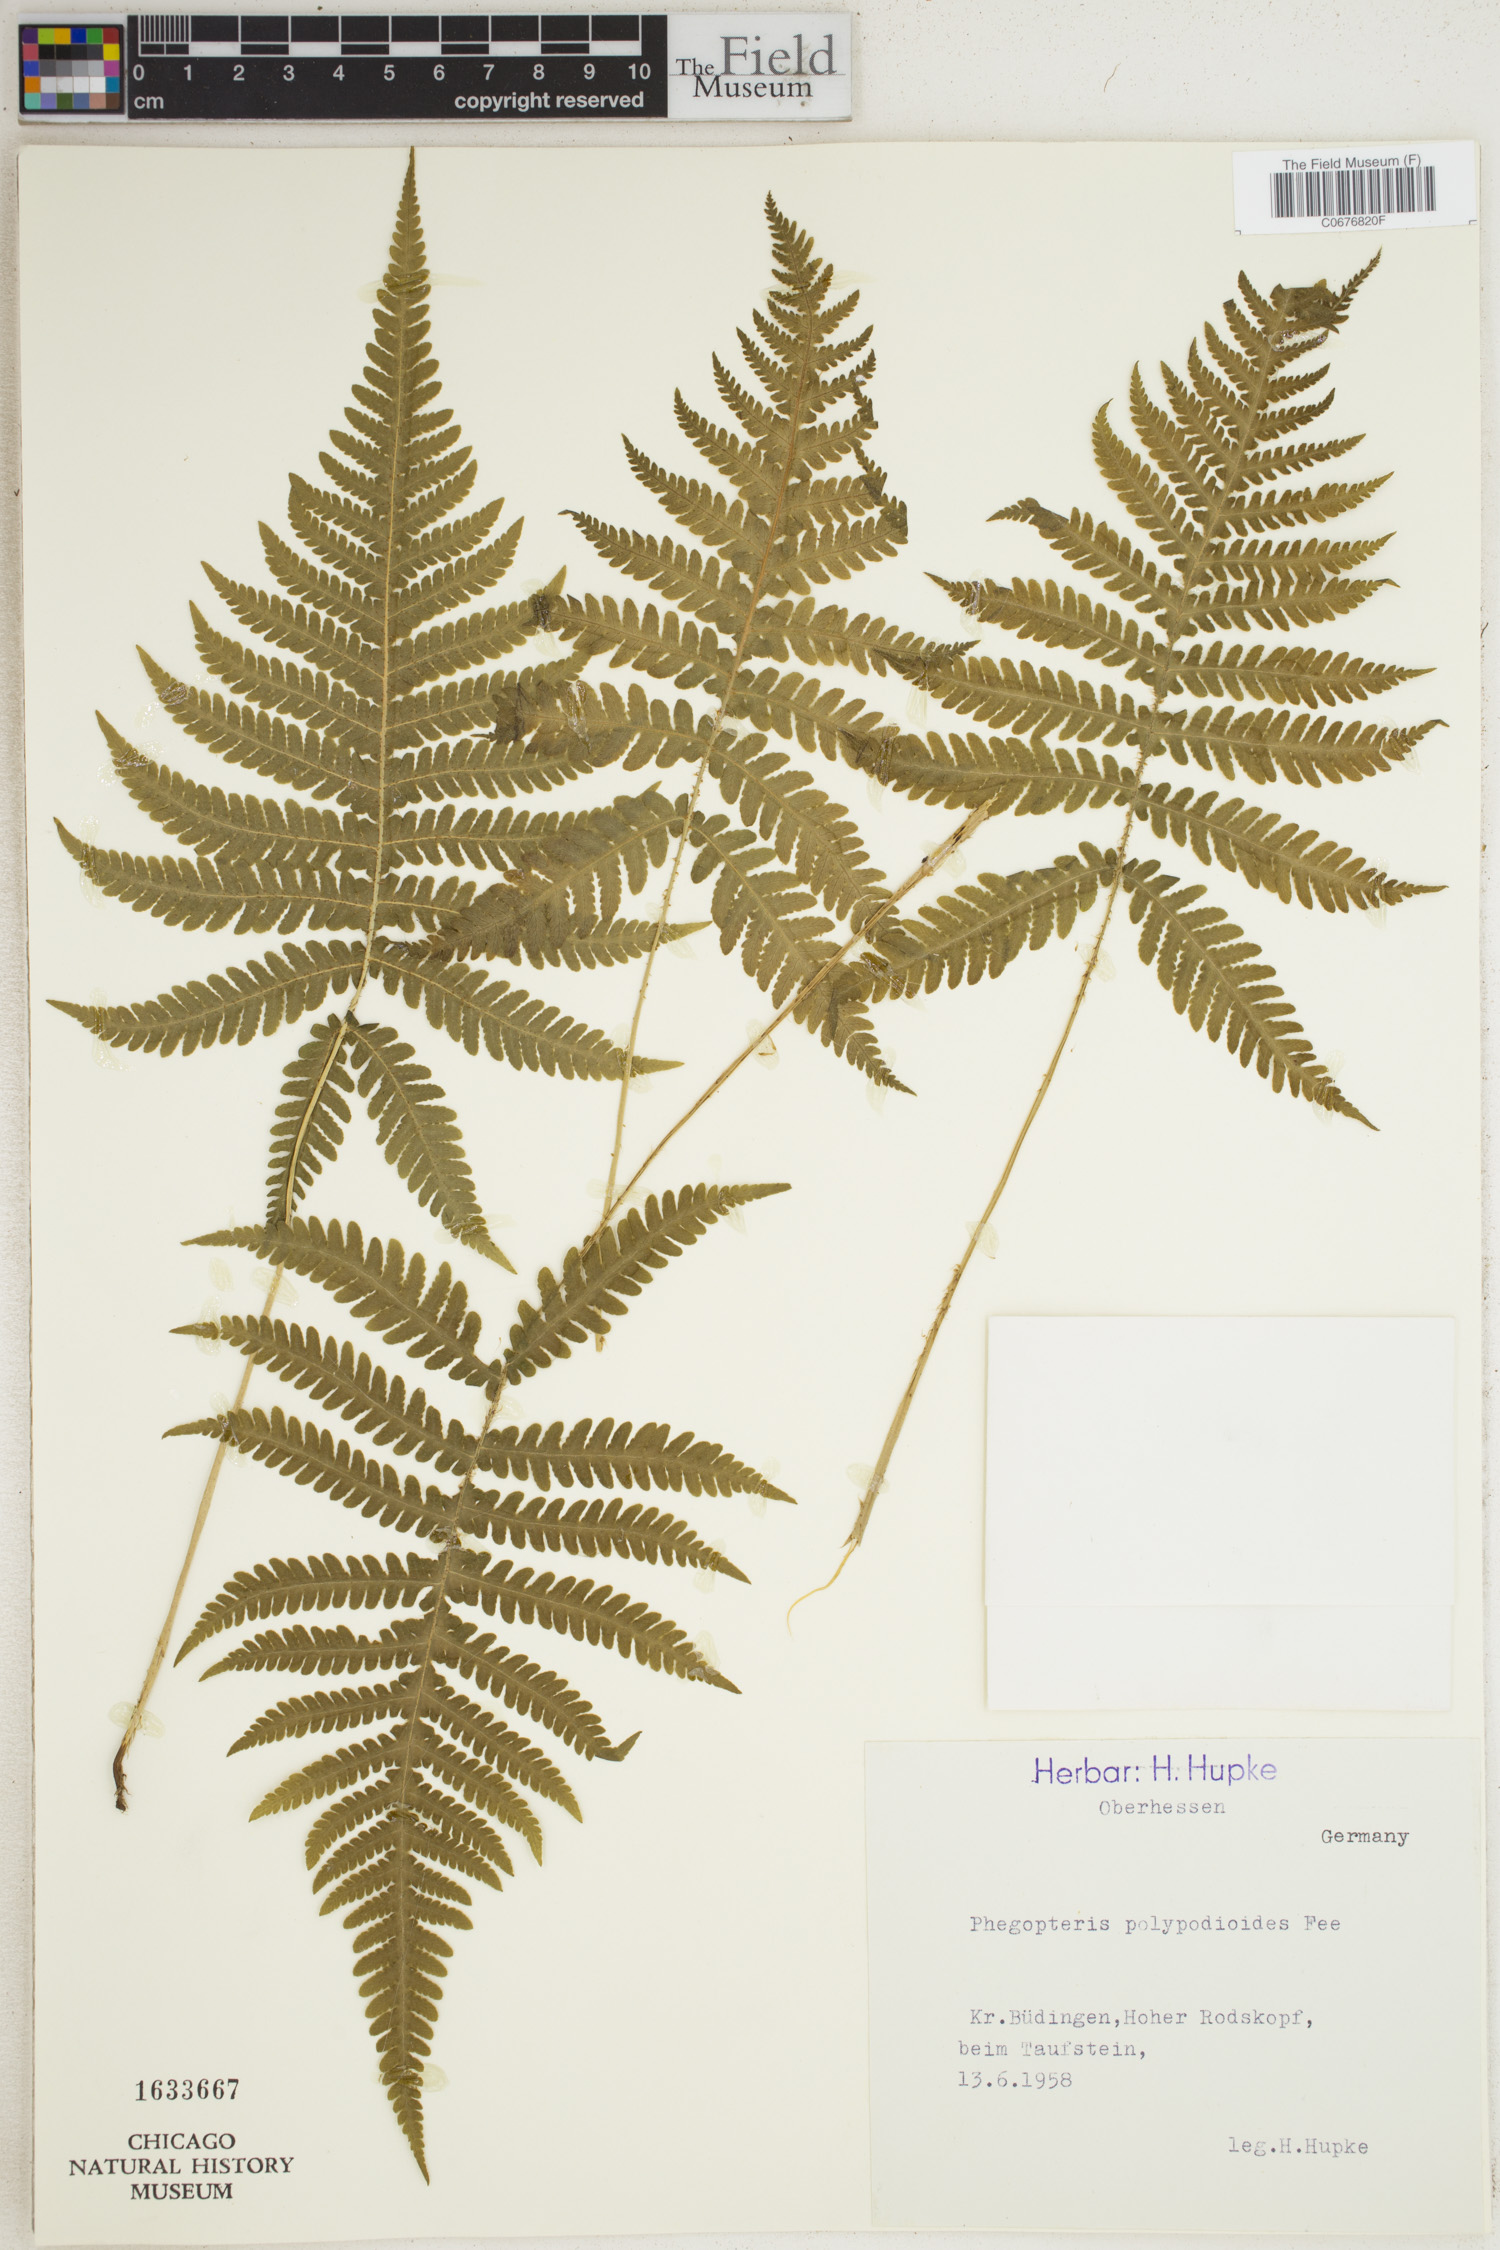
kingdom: Plantae
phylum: Tracheophyta
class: Polypodiopsida
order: Polypodiales
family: Thelypteridaceae
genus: Phegopteris
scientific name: Phegopteris connectilis
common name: Beech fern
